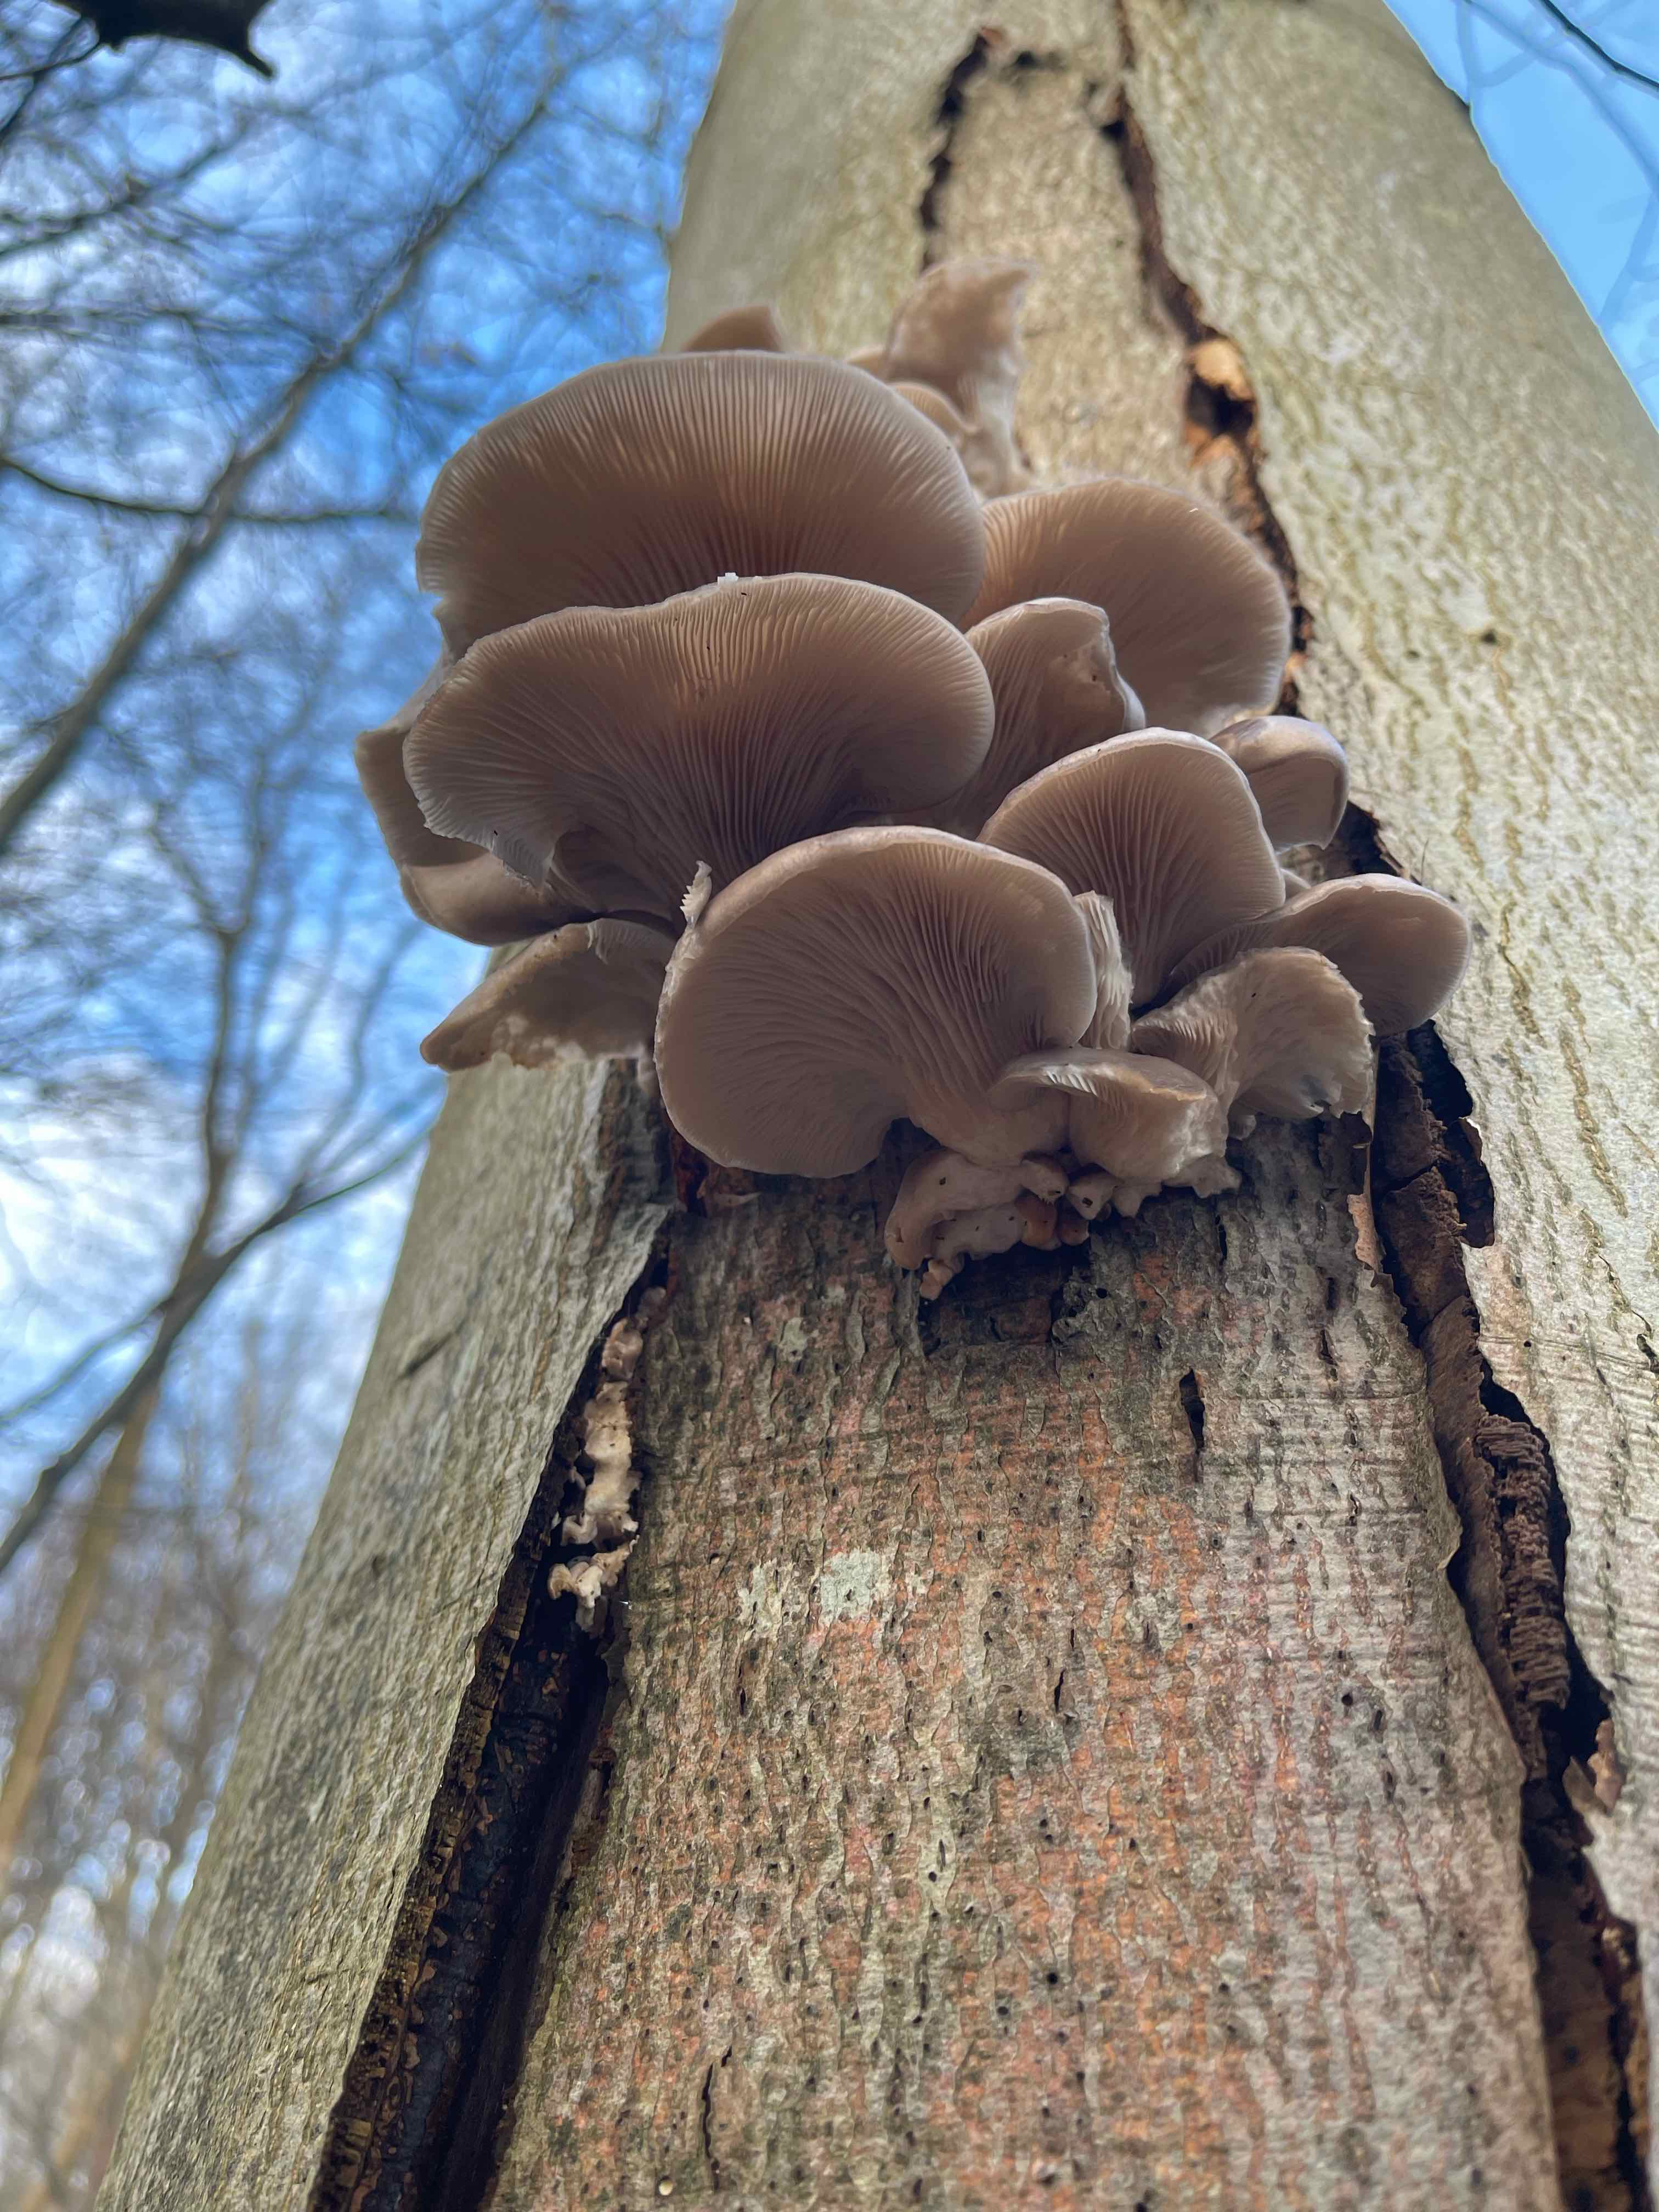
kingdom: Fungi
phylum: Basidiomycota
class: Agaricomycetes
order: Agaricales
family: Pleurotaceae
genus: Pleurotus
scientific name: Pleurotus ostreatus
